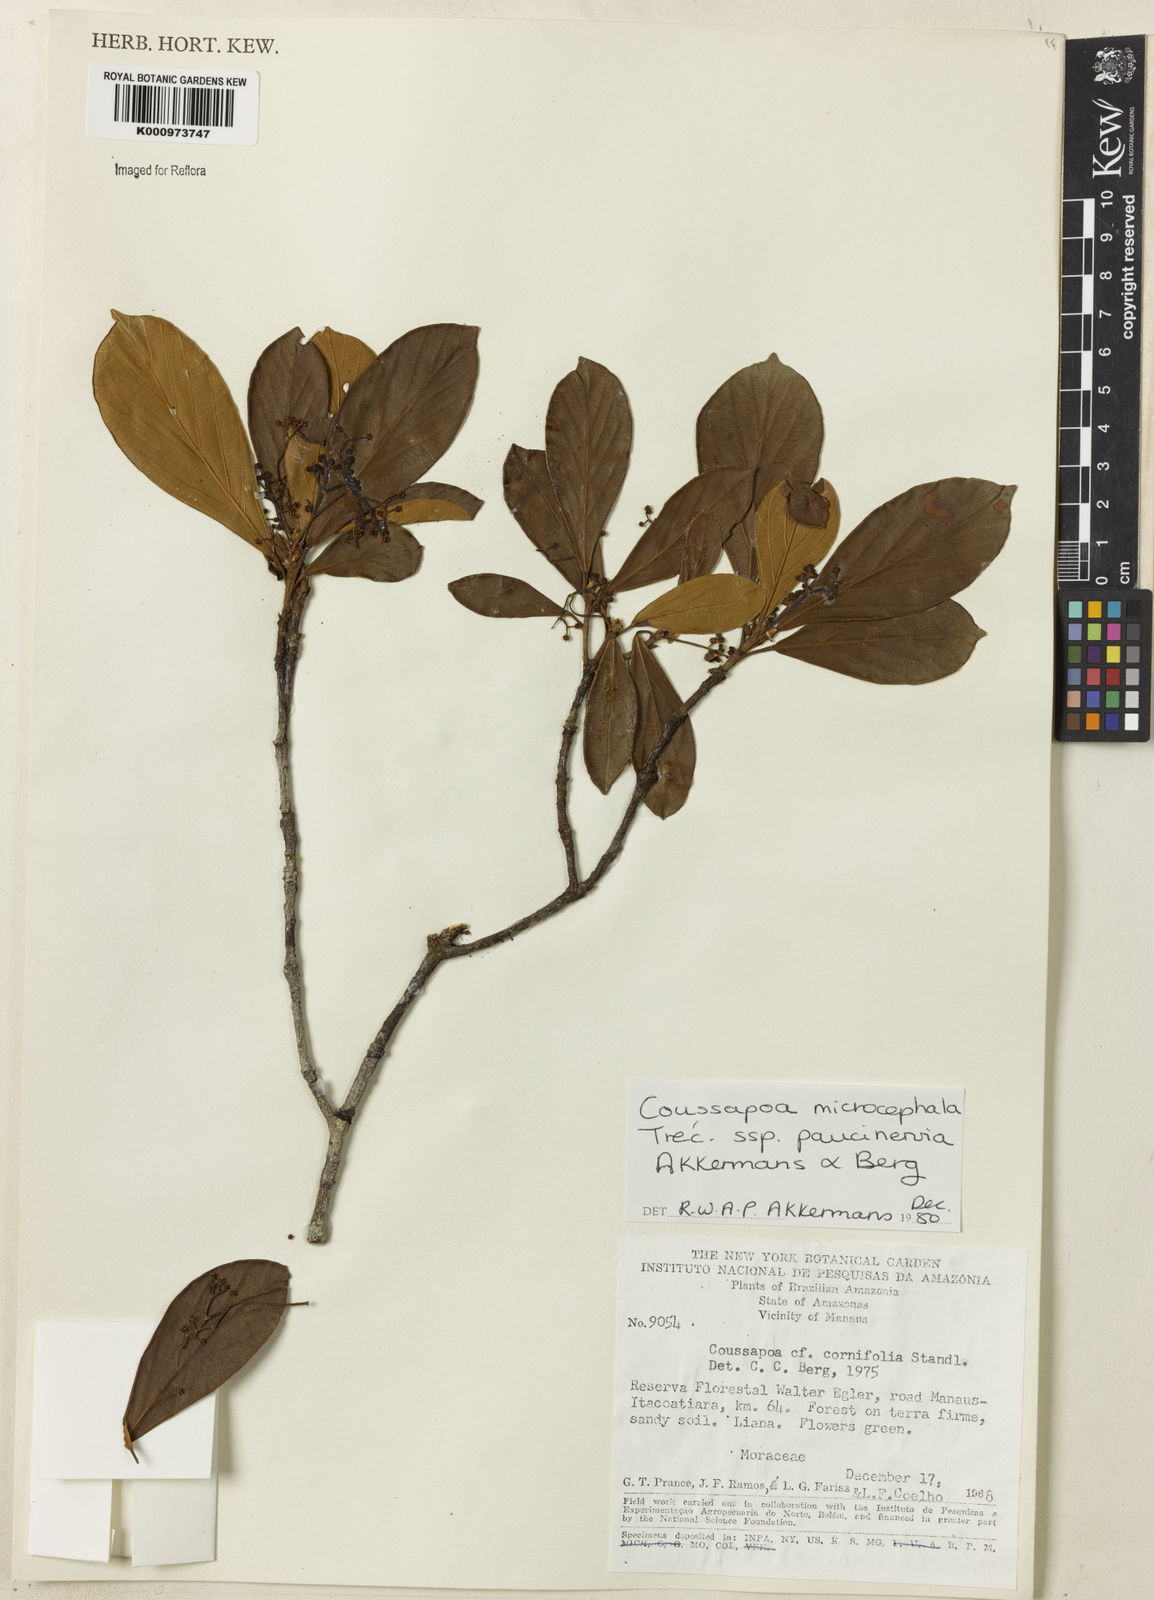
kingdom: Plantae
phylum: Tracheophyta
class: Magnoliopsida
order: Rosales
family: Urticaceae
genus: Coussapoa
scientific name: Coussapoa
